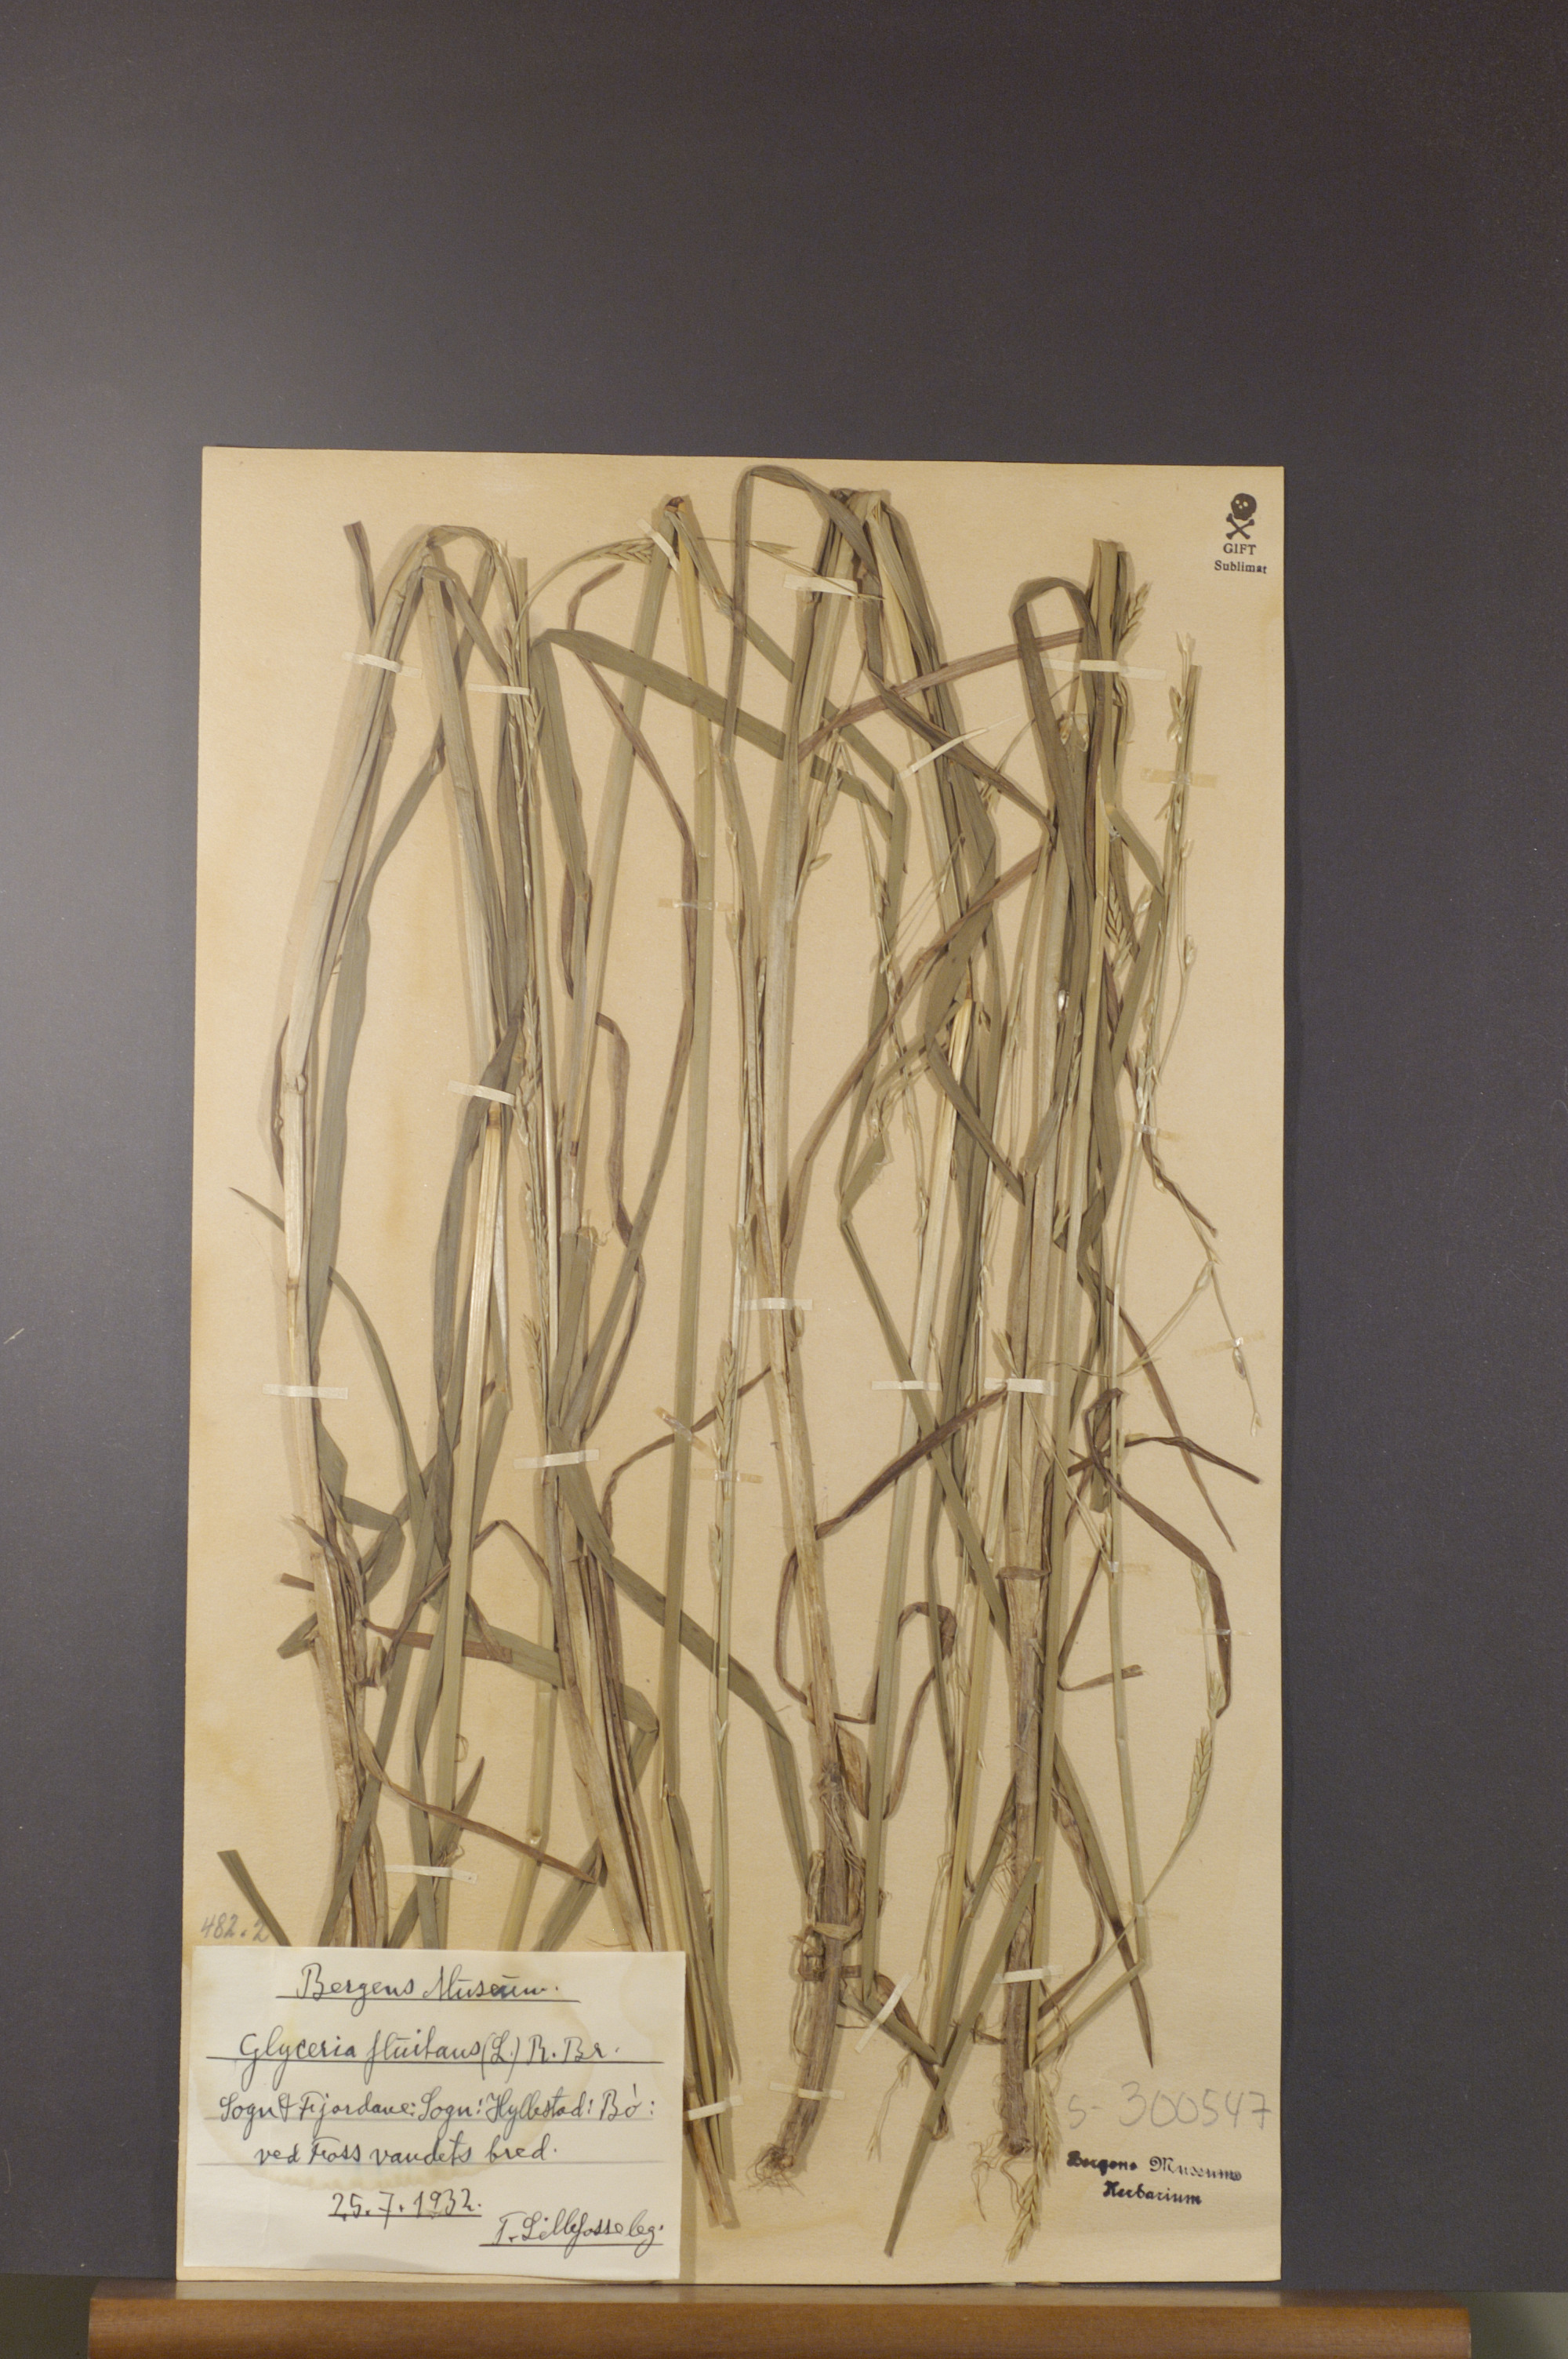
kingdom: Plantae
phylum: Tracheophyta
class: Liliopsida
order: Poales
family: Poaceae
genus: Glyceria
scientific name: Glyceria fluitans
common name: Floating sweet-grass
